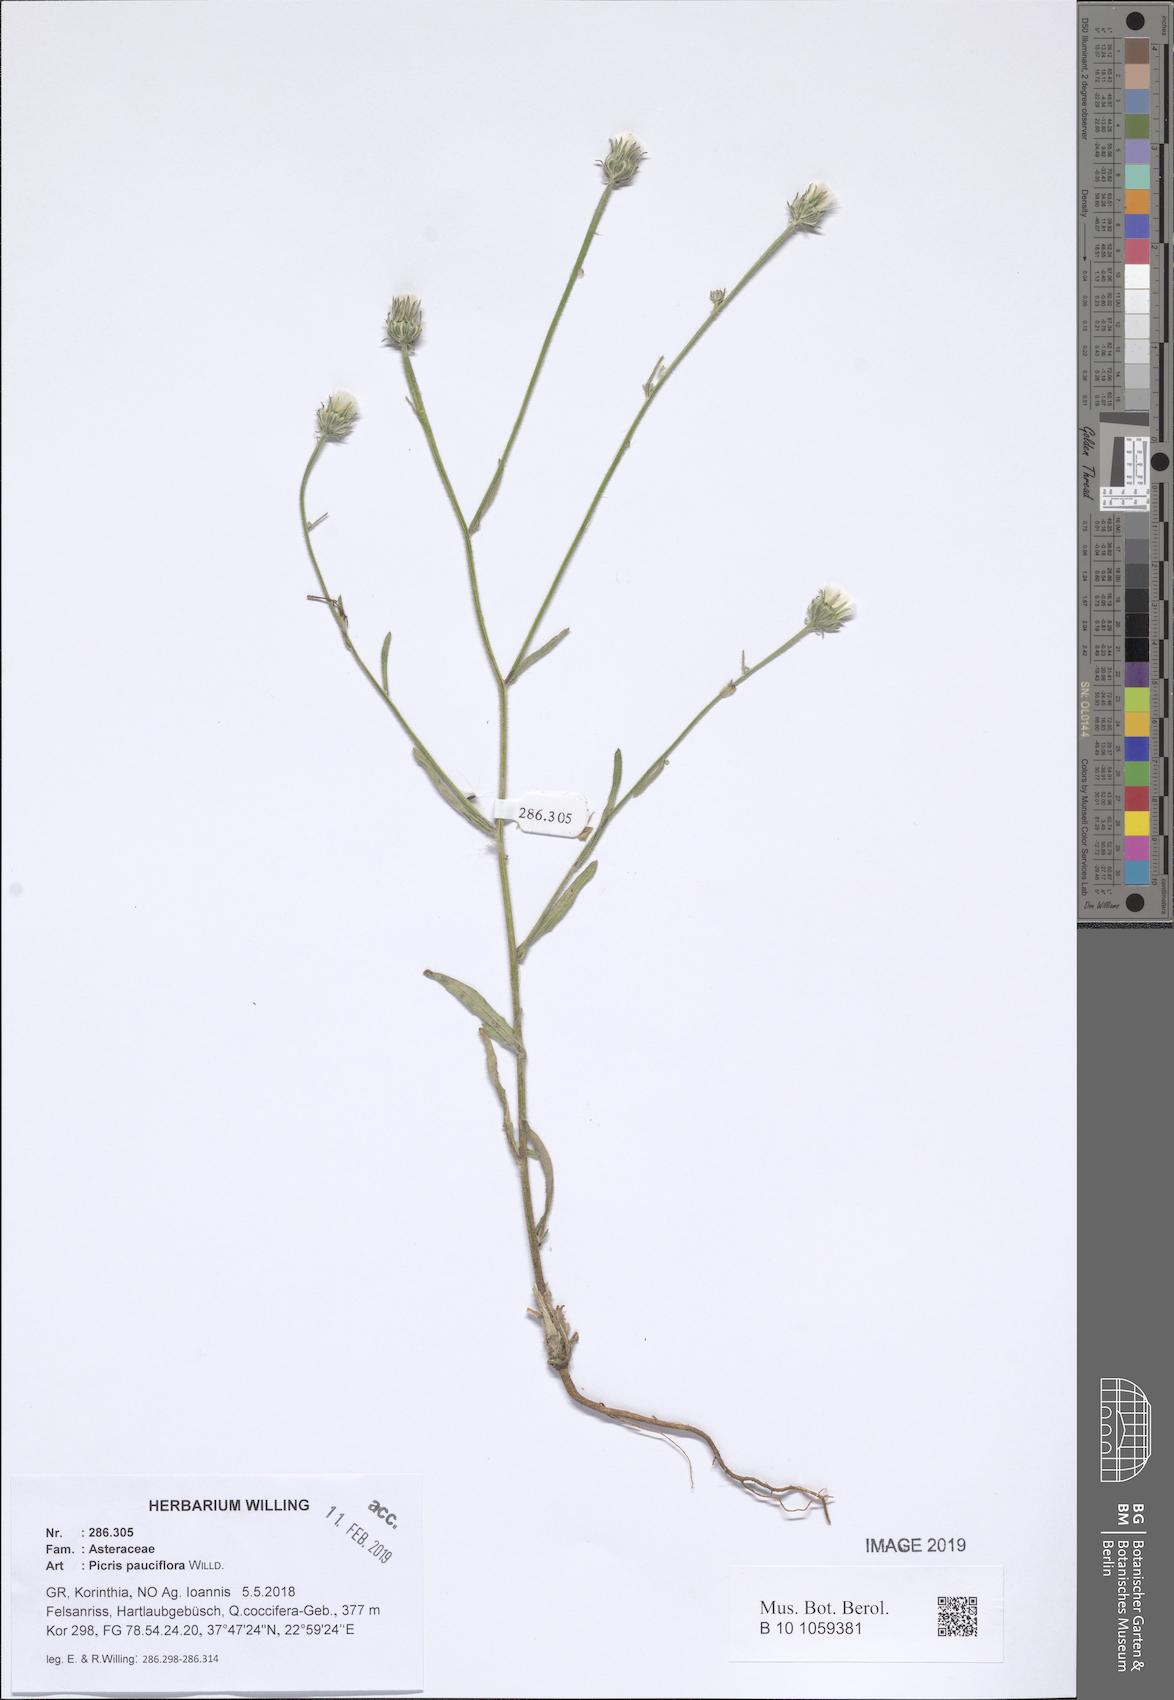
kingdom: Plantae
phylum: Tracheophyta
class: Magnoliopsida
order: Asterales
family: Asteraceae
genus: Picris
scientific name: Picris pauciflora
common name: Smallflower oxtongue
